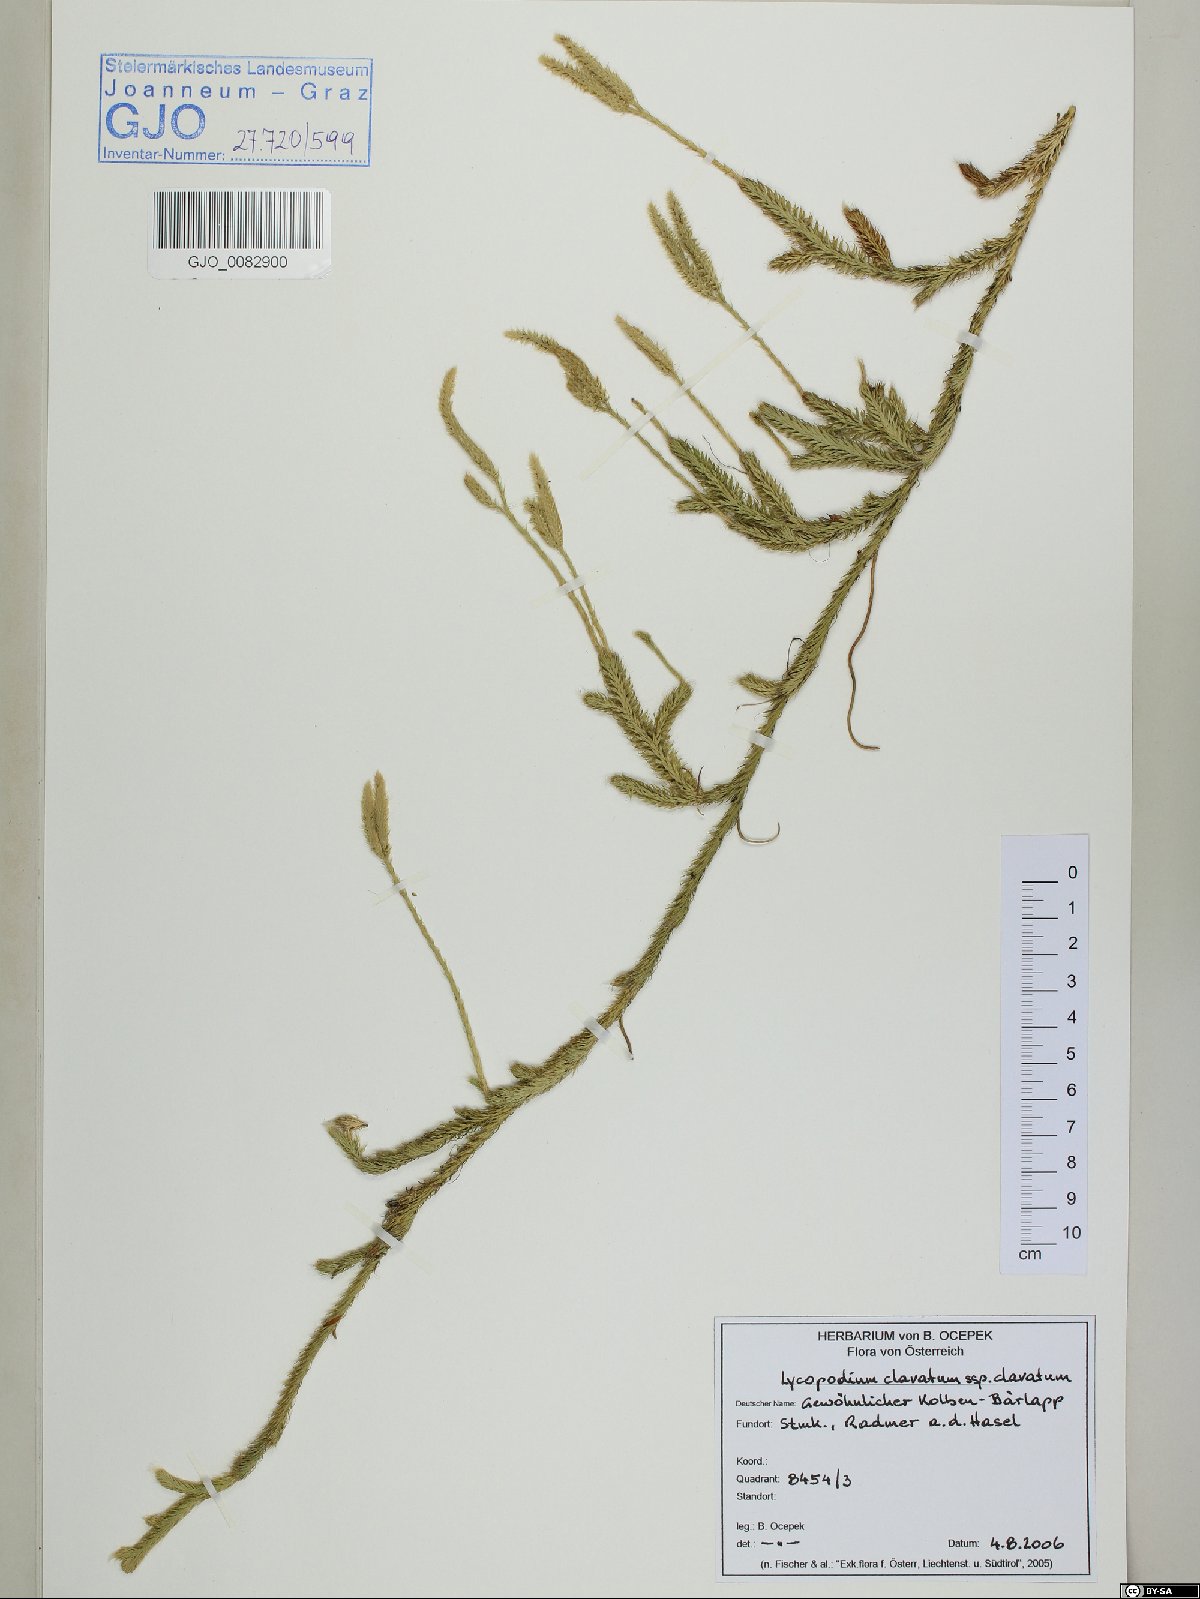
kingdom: Plantae
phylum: Tracheophyta
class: Lycopodiopsida
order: Lycopodiales
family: Lycopodiaceae
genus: Lycopodium
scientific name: Lycopodium clavatum
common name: Stag's-horn clubmoss
